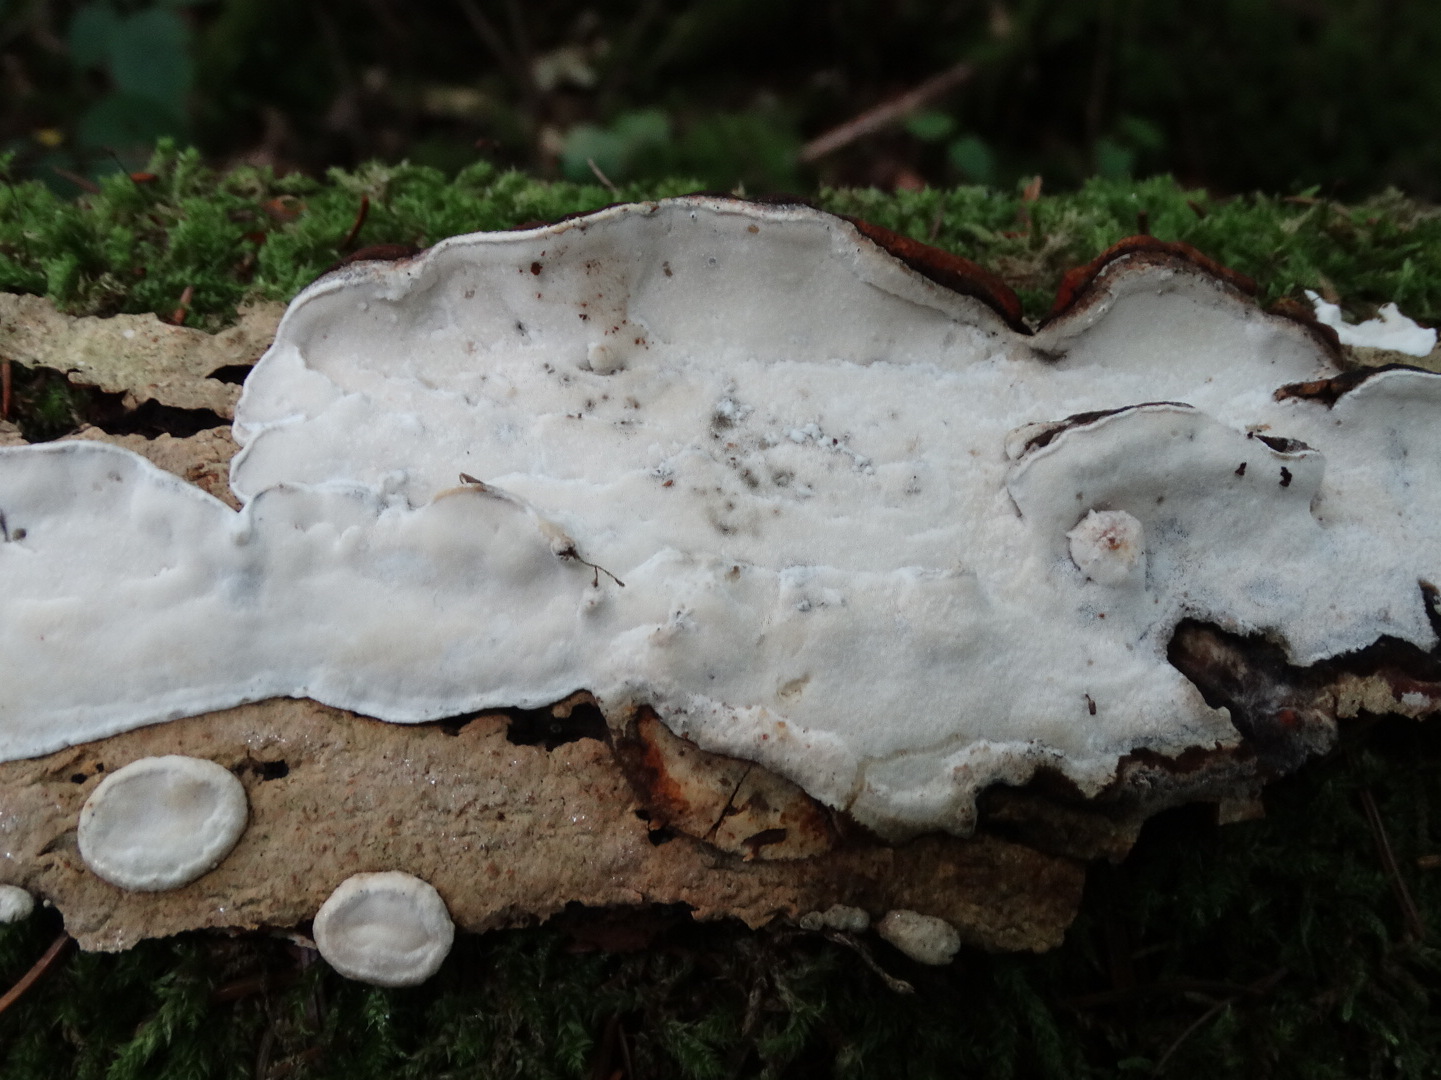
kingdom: Fungi
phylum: Basidiomycota
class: Agaricomycetes
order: Polyporales
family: Incrustoporiaceae
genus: Skeletocutis
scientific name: Skeletocutis nemoralis
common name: stor krystalporesvamp
